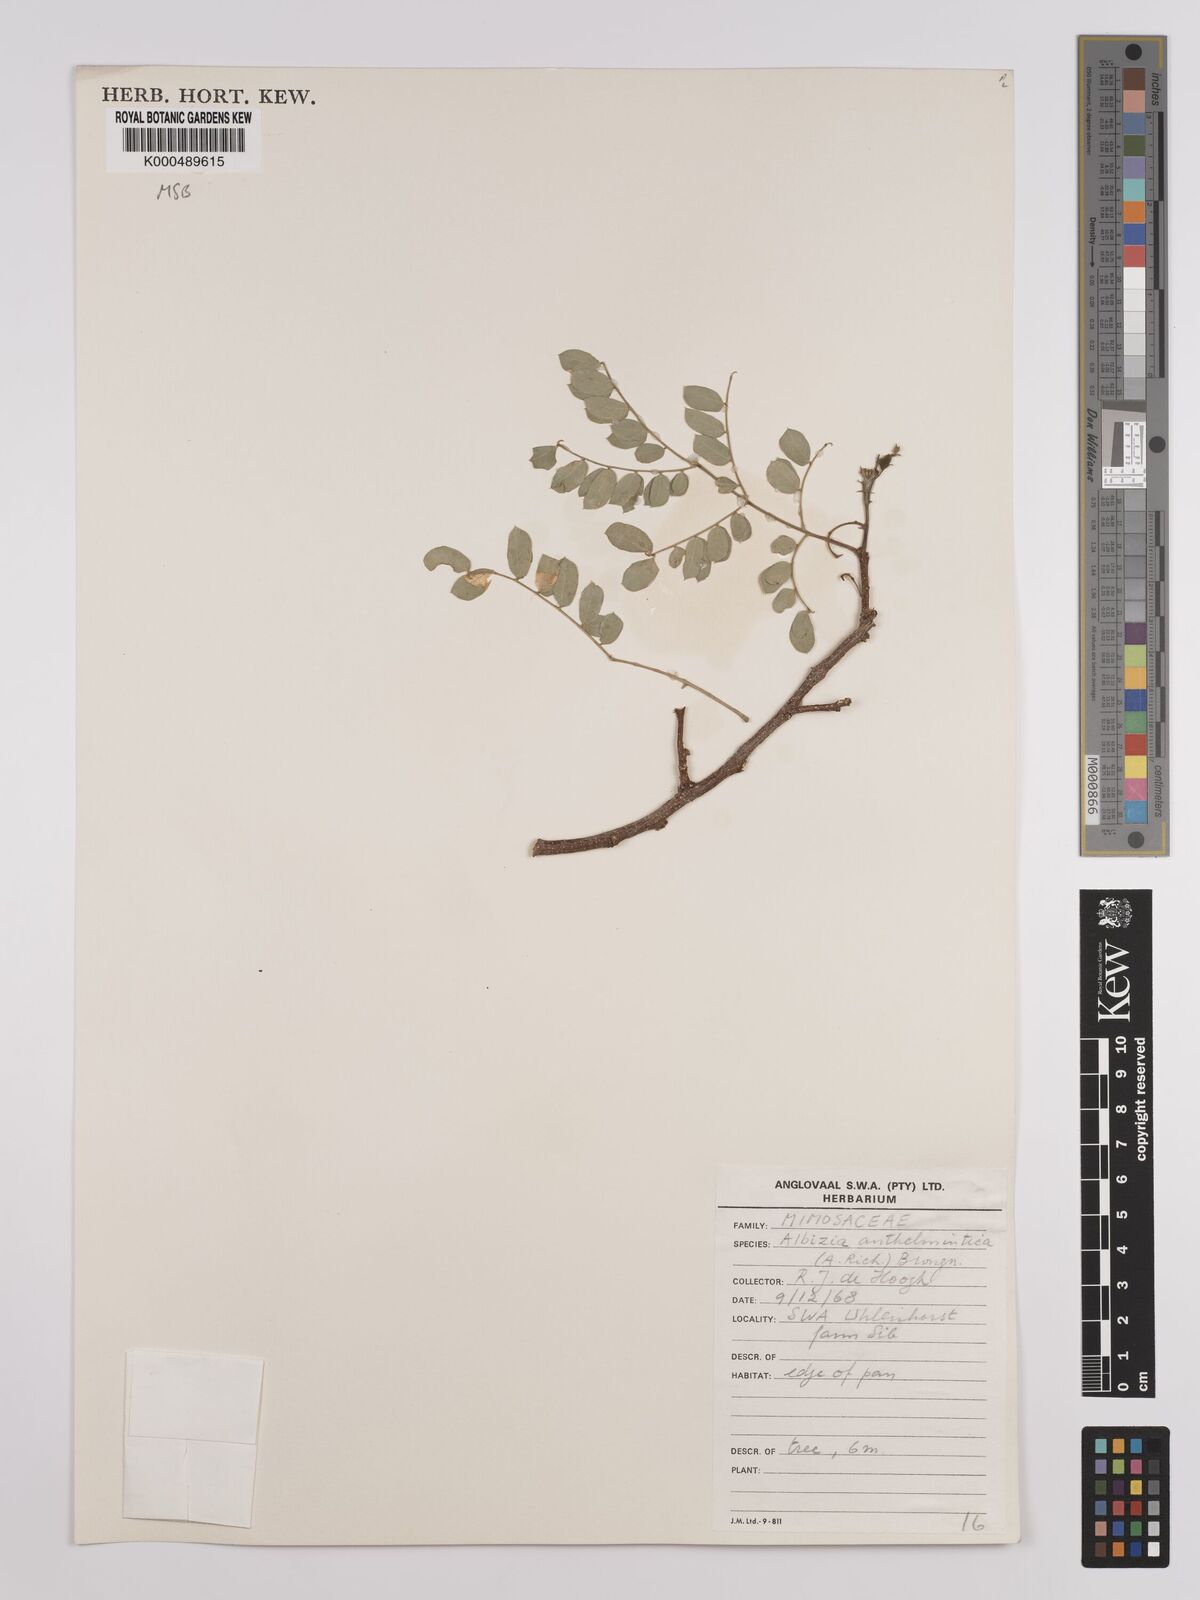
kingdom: Plantae
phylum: Tracheophyta
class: Magnoliopsida
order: Fabales
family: Fabaceae
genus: Albizia
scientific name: Albizia anthelmintica
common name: Worm-bark false-thorn
